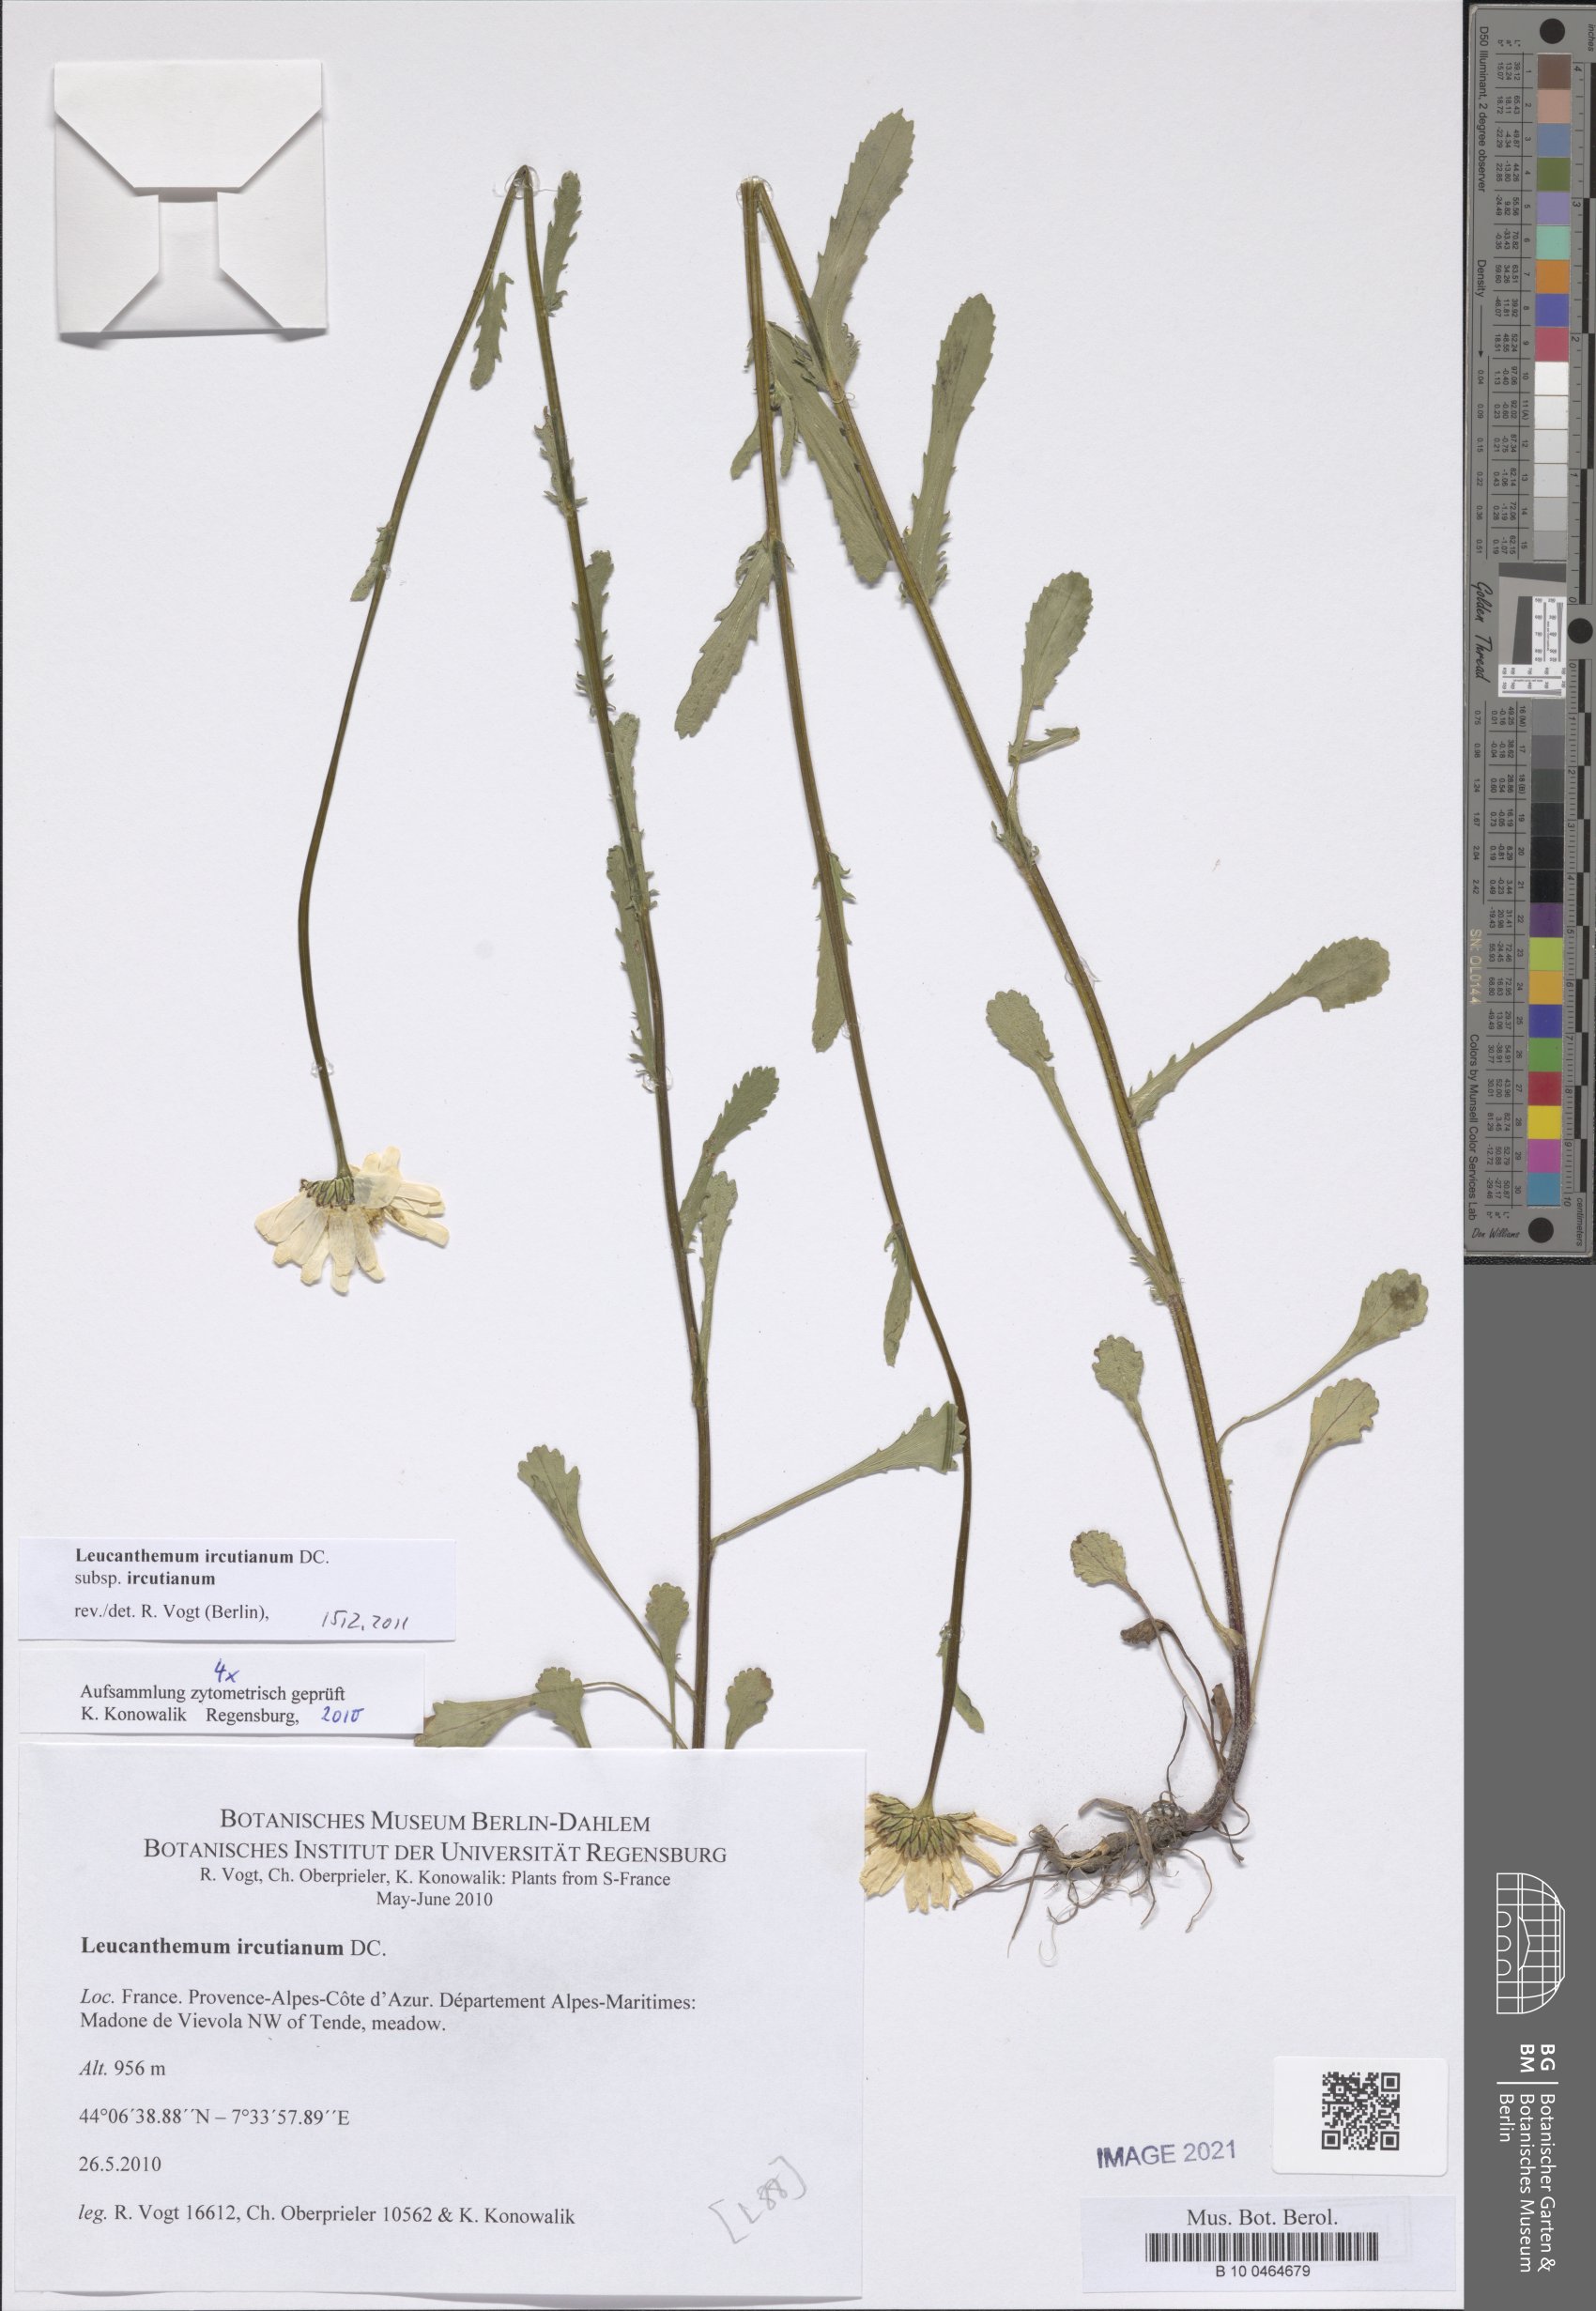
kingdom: Plantae
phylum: Tracheophyta
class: Magnoliopsida
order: Asterales
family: Asteraceae
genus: Leucanthemum
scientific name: Leucanthemum ircutianum
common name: Daisy
